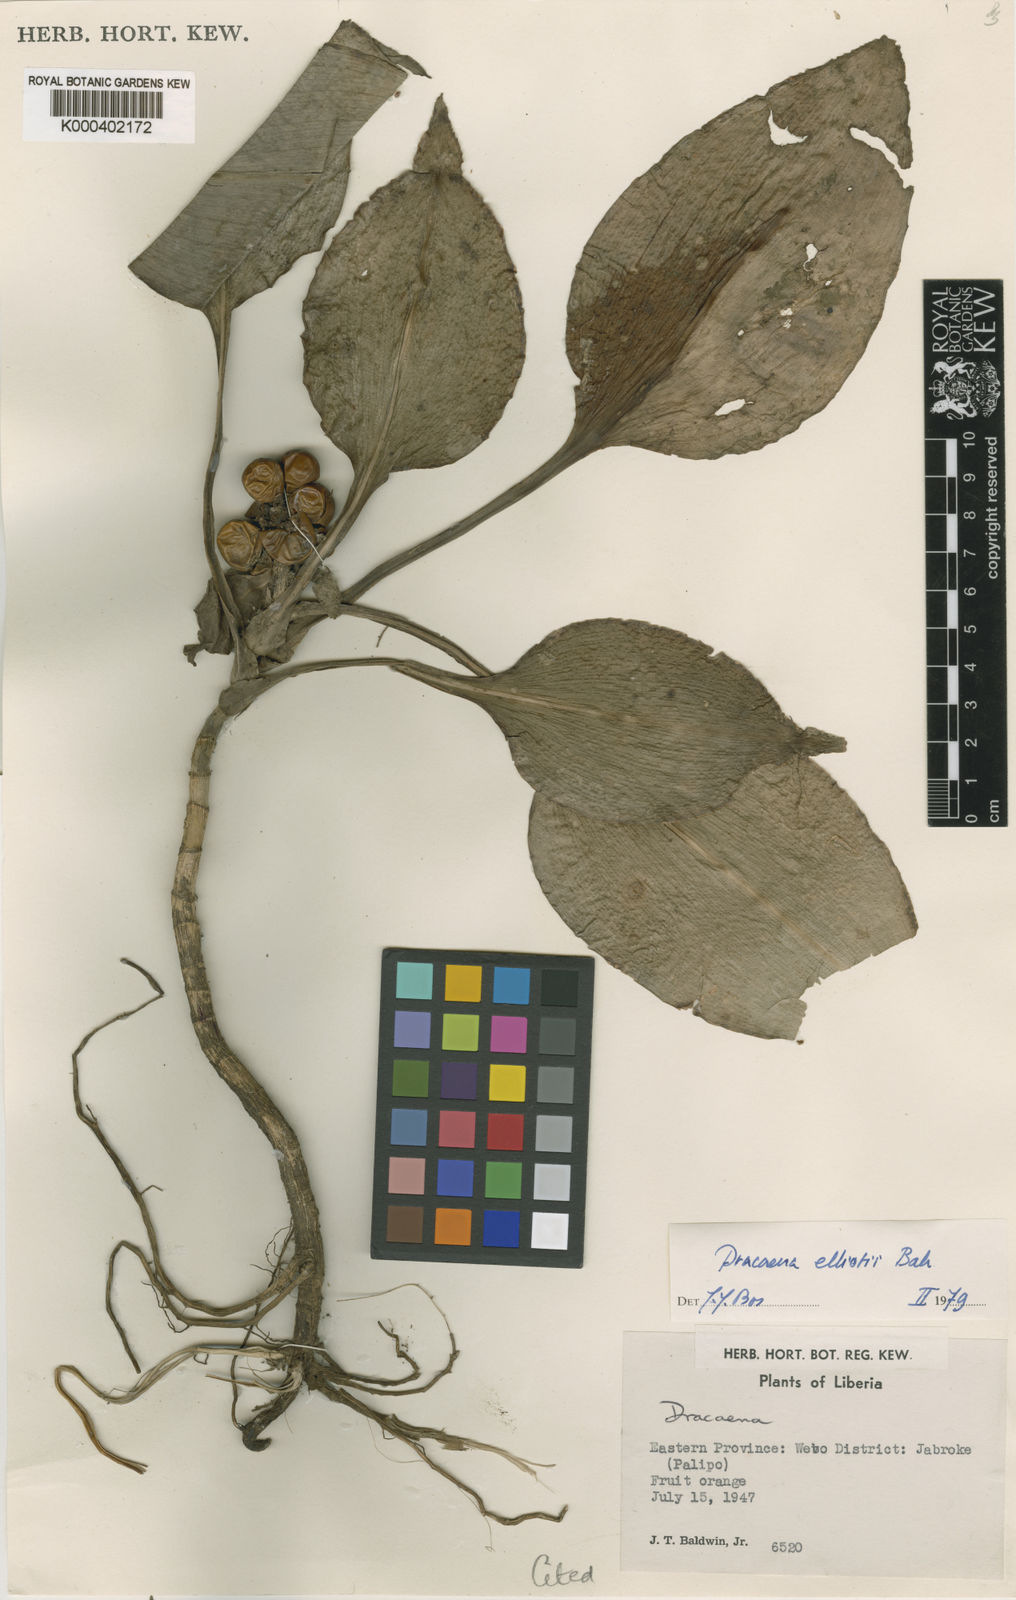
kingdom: Plantae
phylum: Tracheophyta
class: Liliopsida
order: Asparagales
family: Asparagaceae
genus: Dracaena
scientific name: Dracaena cristula
